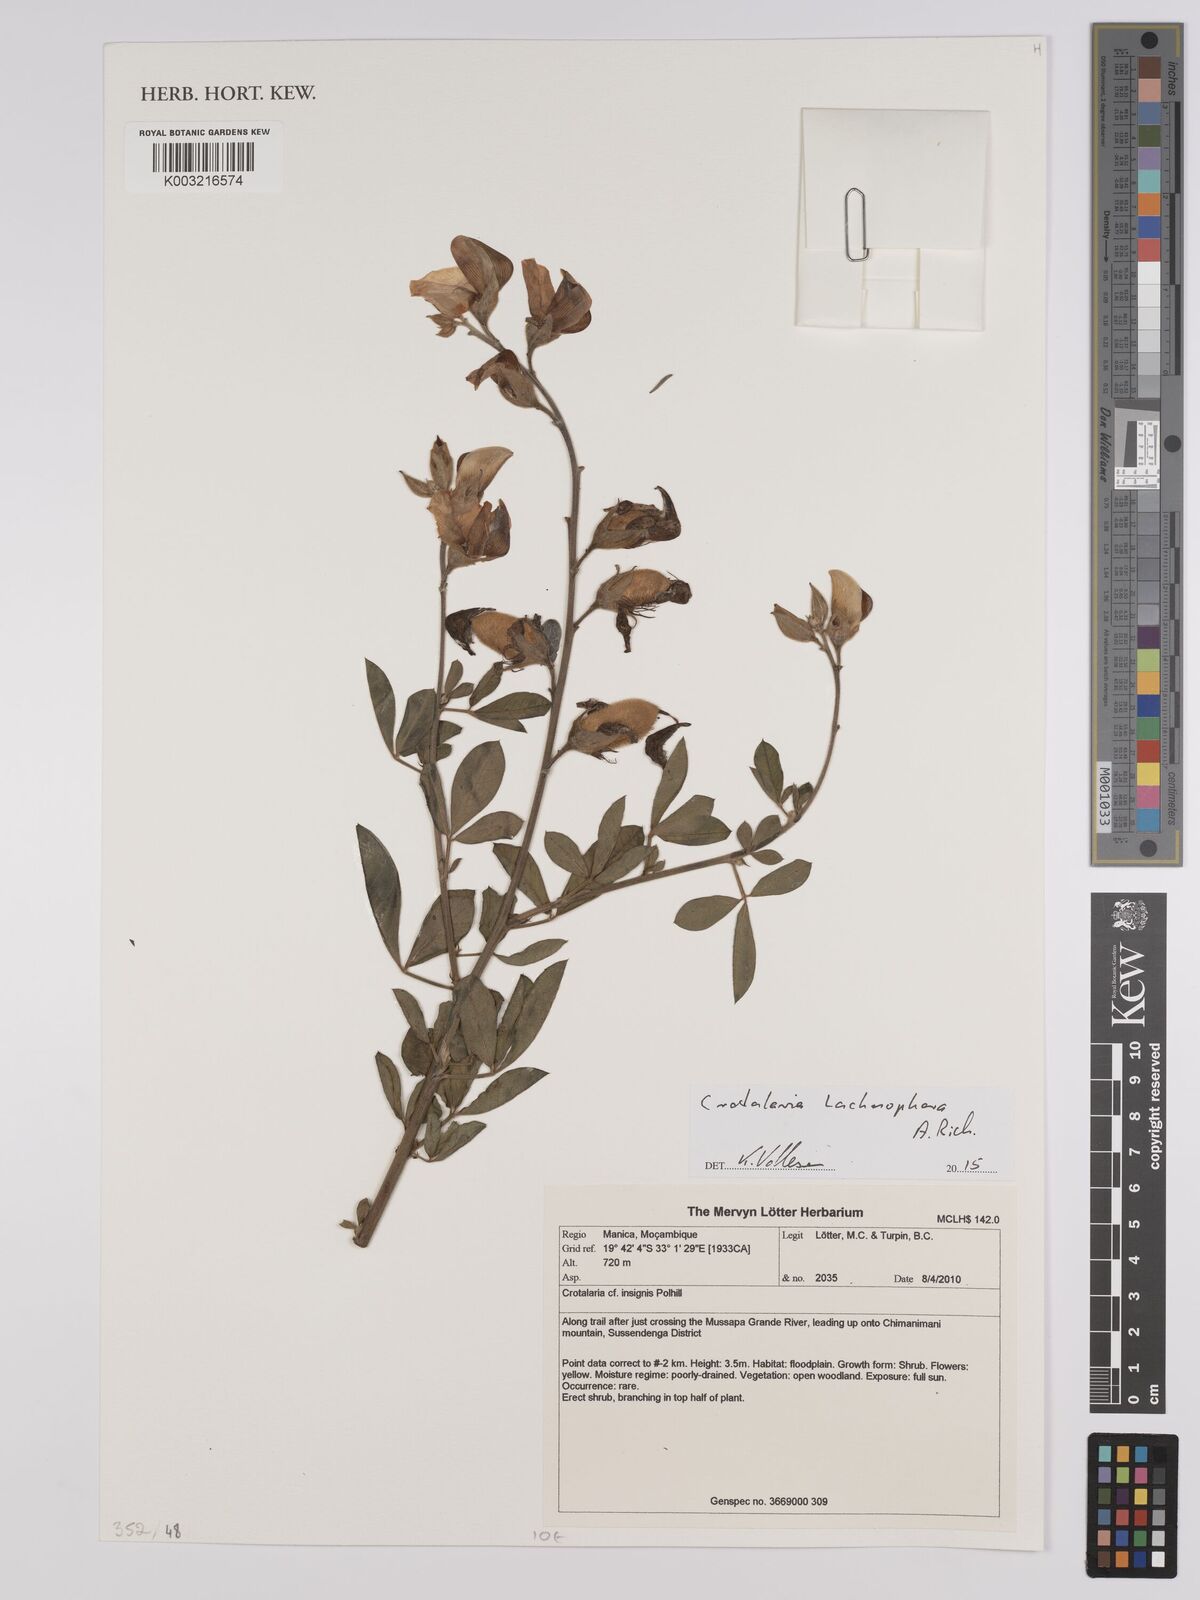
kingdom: Plantae
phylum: Tracheophyta
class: Magnoliopsida
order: Fabales
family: Fabaceae
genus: Crotalaria
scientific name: Crotalaria lachnophora
